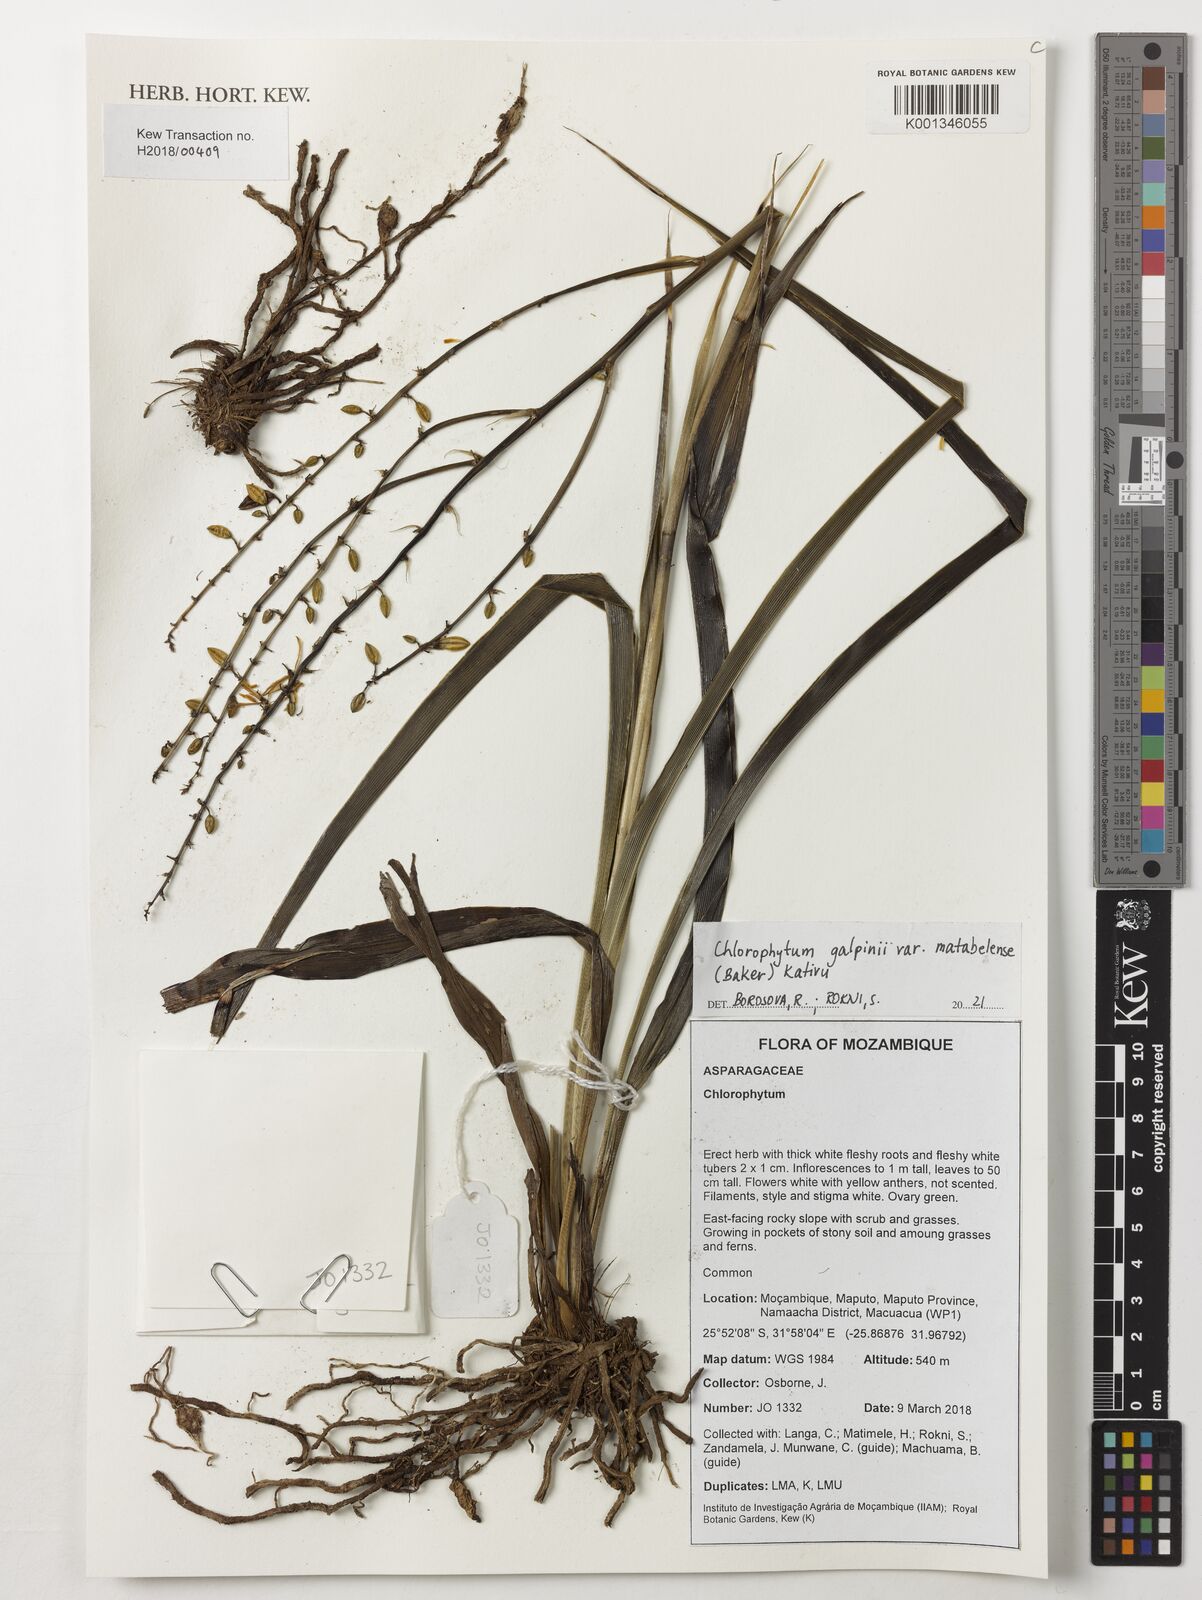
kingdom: Plantae
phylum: Tracheophyta
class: Liliopsida
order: Asparagales
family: Asparagaceae
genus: Chlorophytum
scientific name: Chlorophytum galpinii
